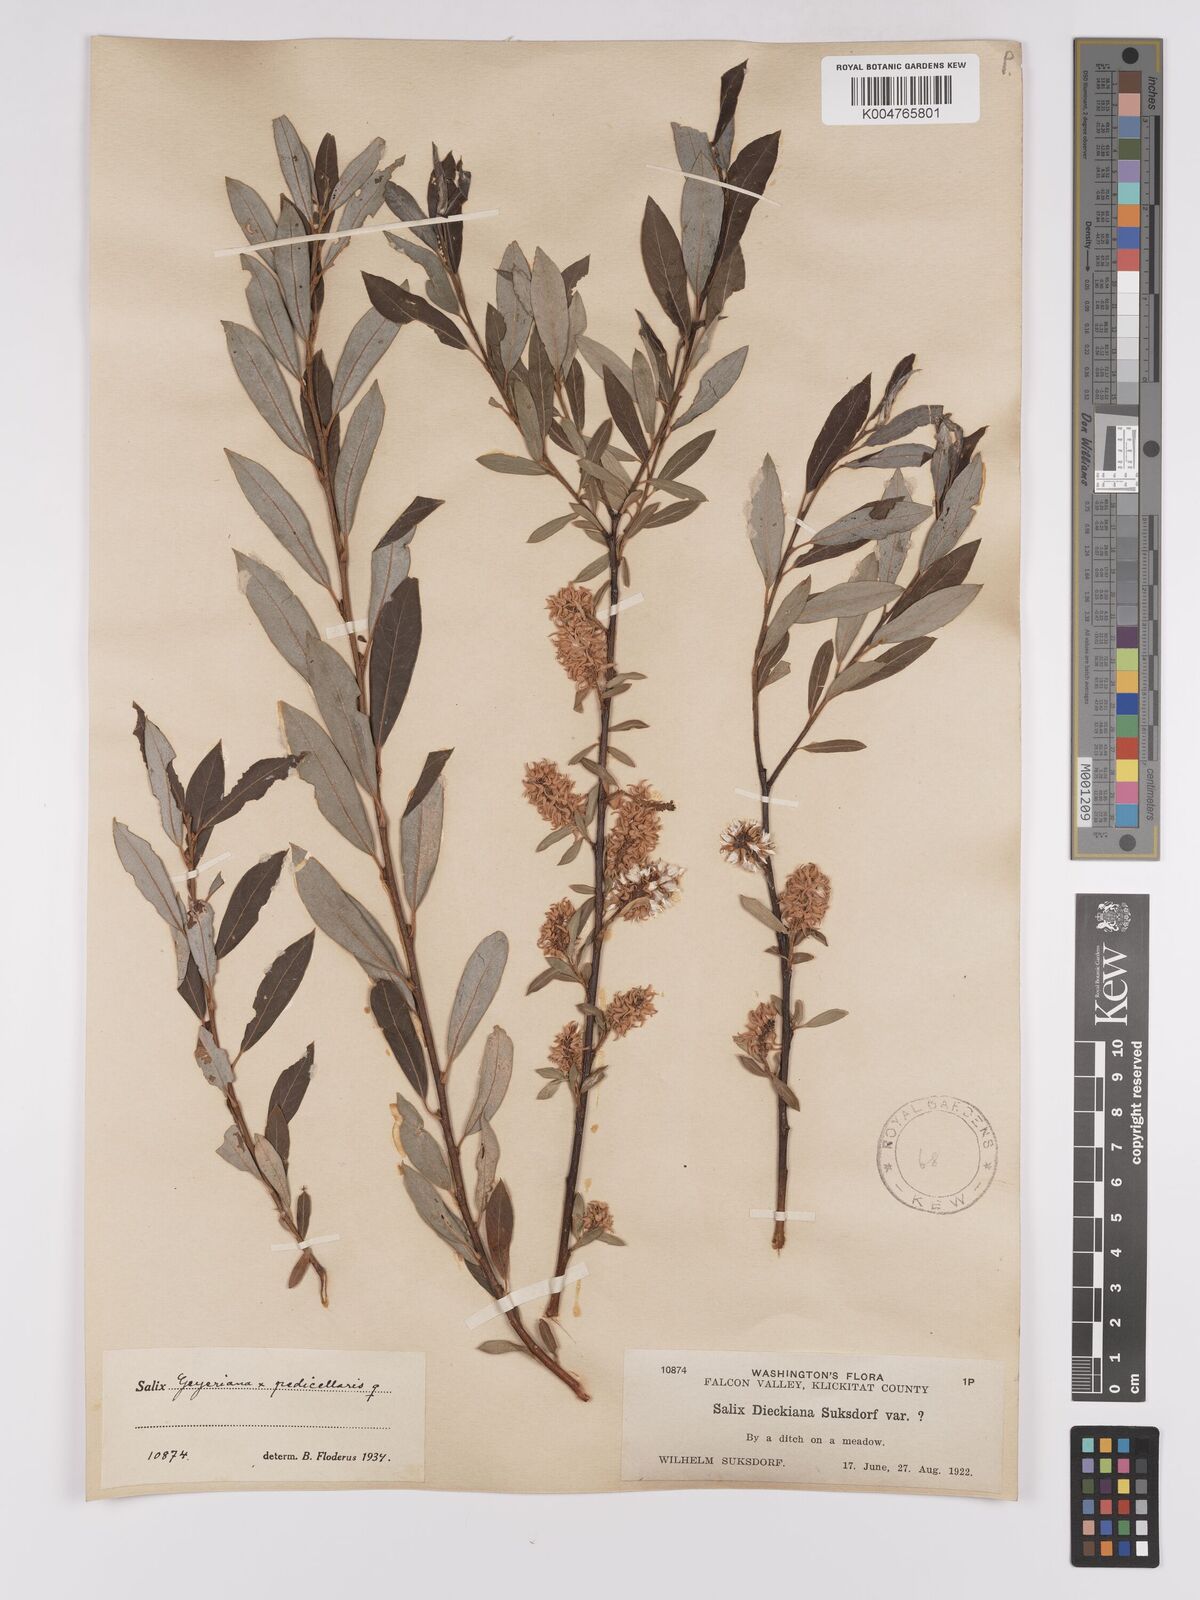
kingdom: Plantae
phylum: Tracheophyta
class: Magnoliopsida
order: Malpighiales
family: Salicaceae
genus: Salix
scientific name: Salix geyeriana
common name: Geyer's willow
